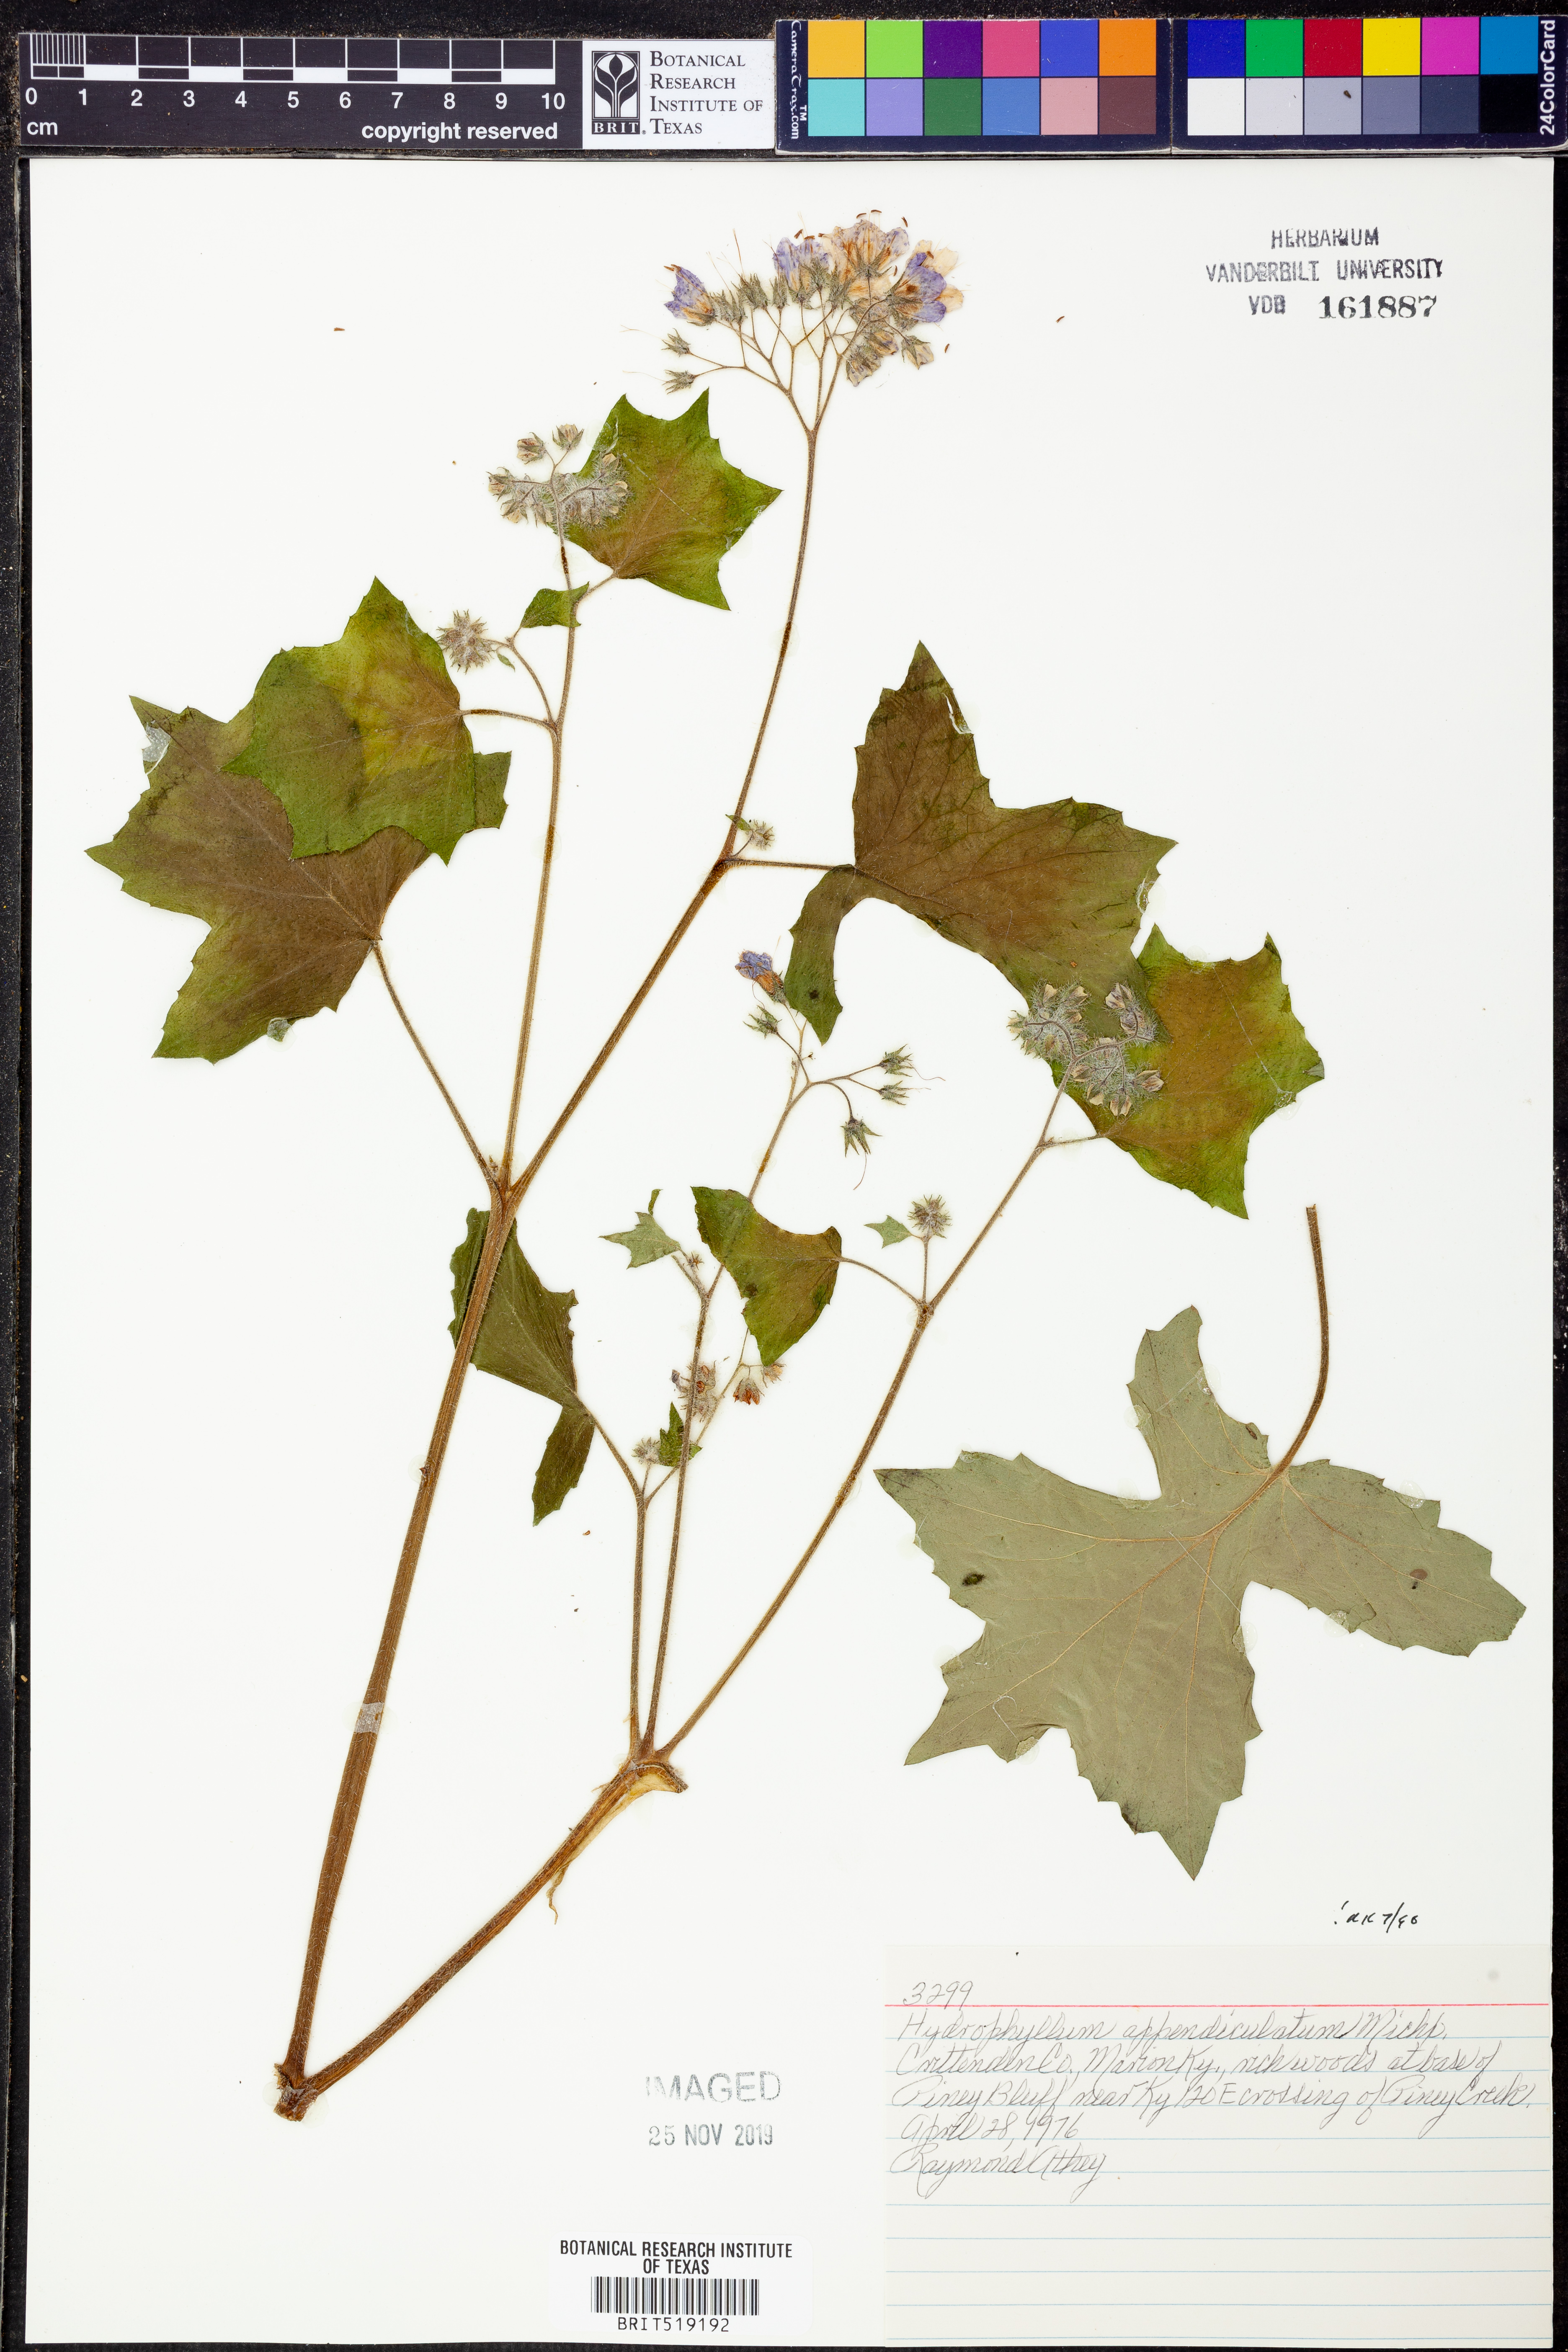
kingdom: Plantae
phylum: Tracheophyta
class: Magnoliopsida
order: Boraginales
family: Hydrophyllaceae
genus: Hydrophyllum
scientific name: Hydrophyllum appendiculatum
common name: Appendaged waterleaf
